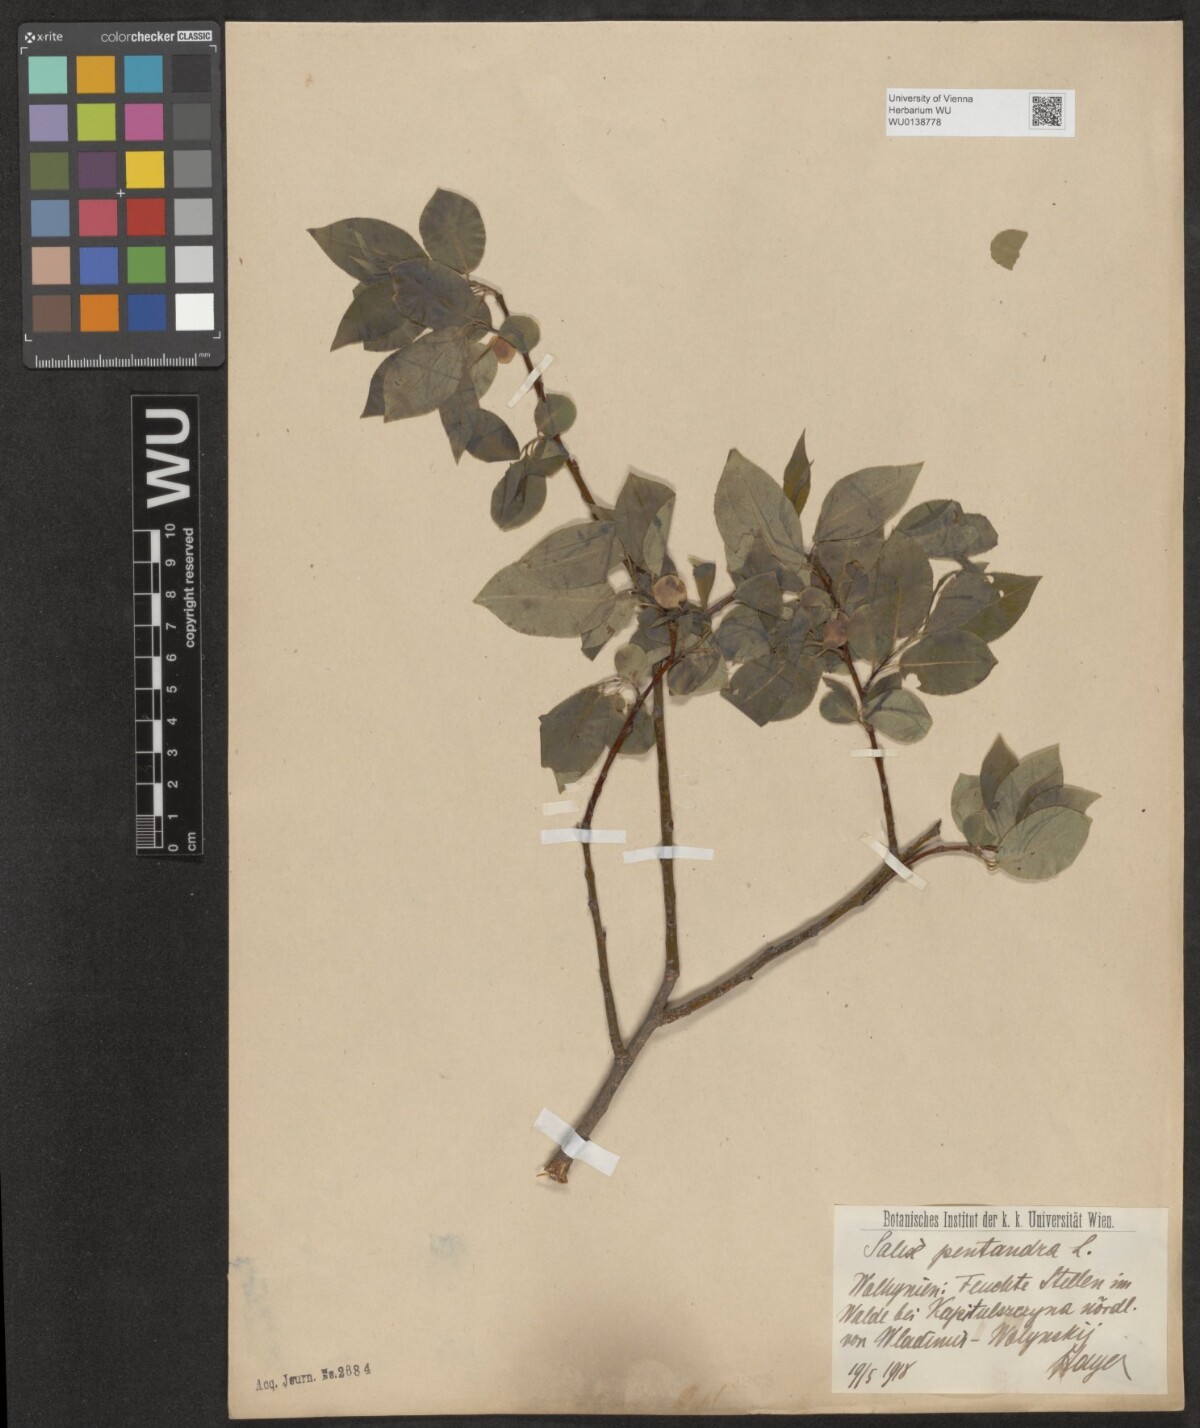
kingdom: Plantae
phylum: Tracheophyta
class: Magnoliopsida
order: Malpighiales
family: Salicaceae
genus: Salix
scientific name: Salix pentandra
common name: Bay willow
